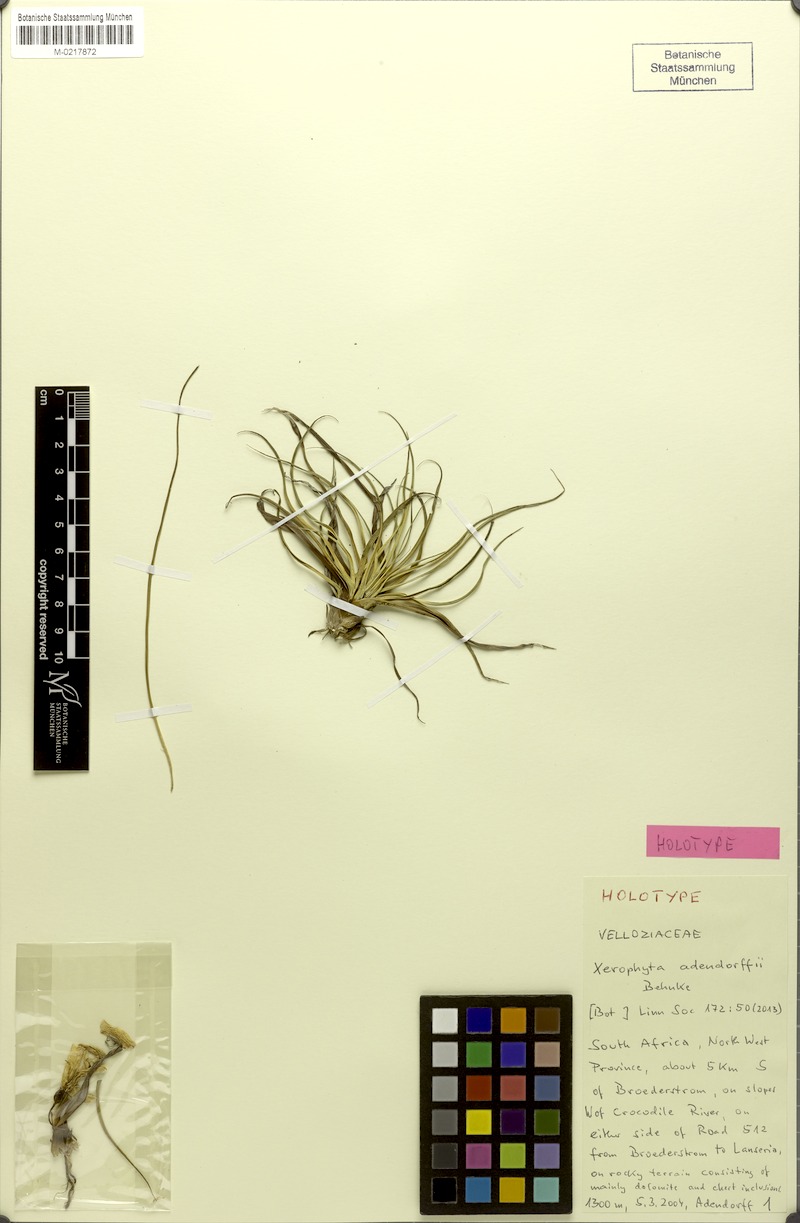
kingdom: Plantae
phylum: Tracheophyta
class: Liliopsida
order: Pandanales
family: Velloziaceae
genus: Xerophyta
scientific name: Xerophyta adendorffii
